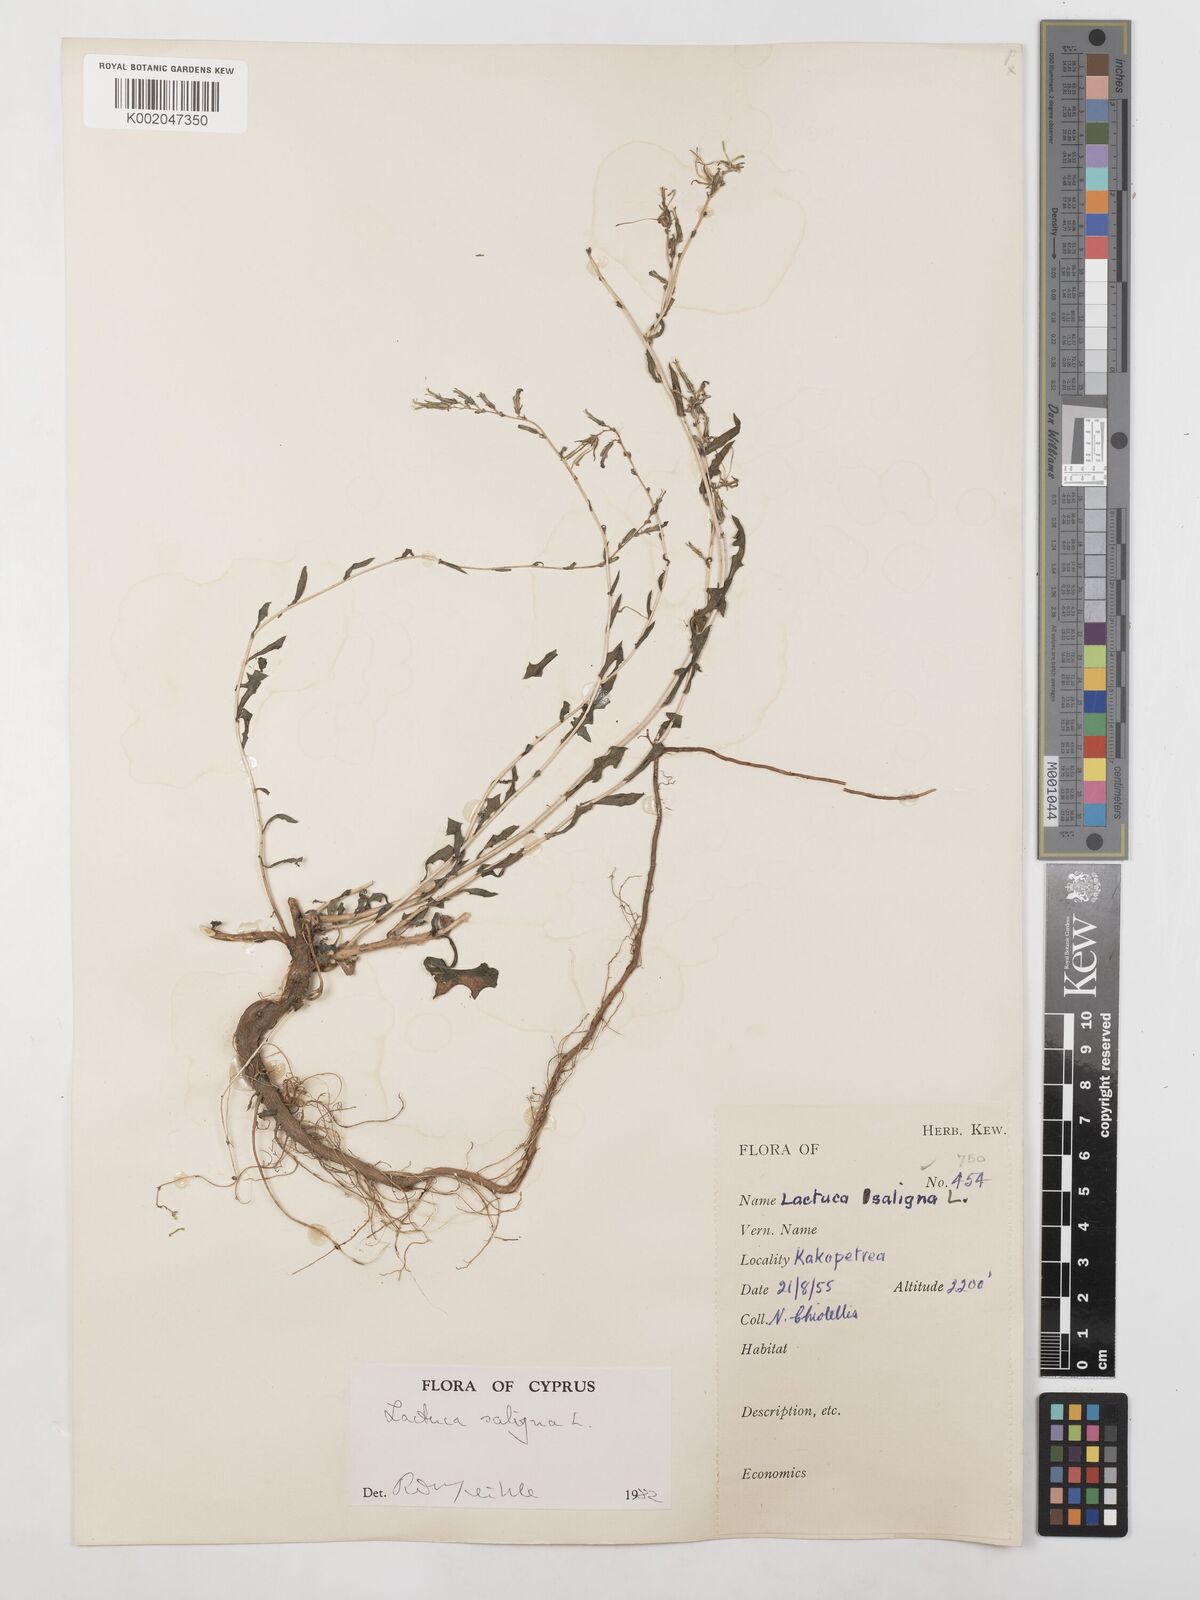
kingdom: Plantae
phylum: Tracheophyta
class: Magnoliopsida
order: Asterales
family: Asteraceae
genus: Lactuca
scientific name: Lactuca saligna
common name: Wild lettuce
